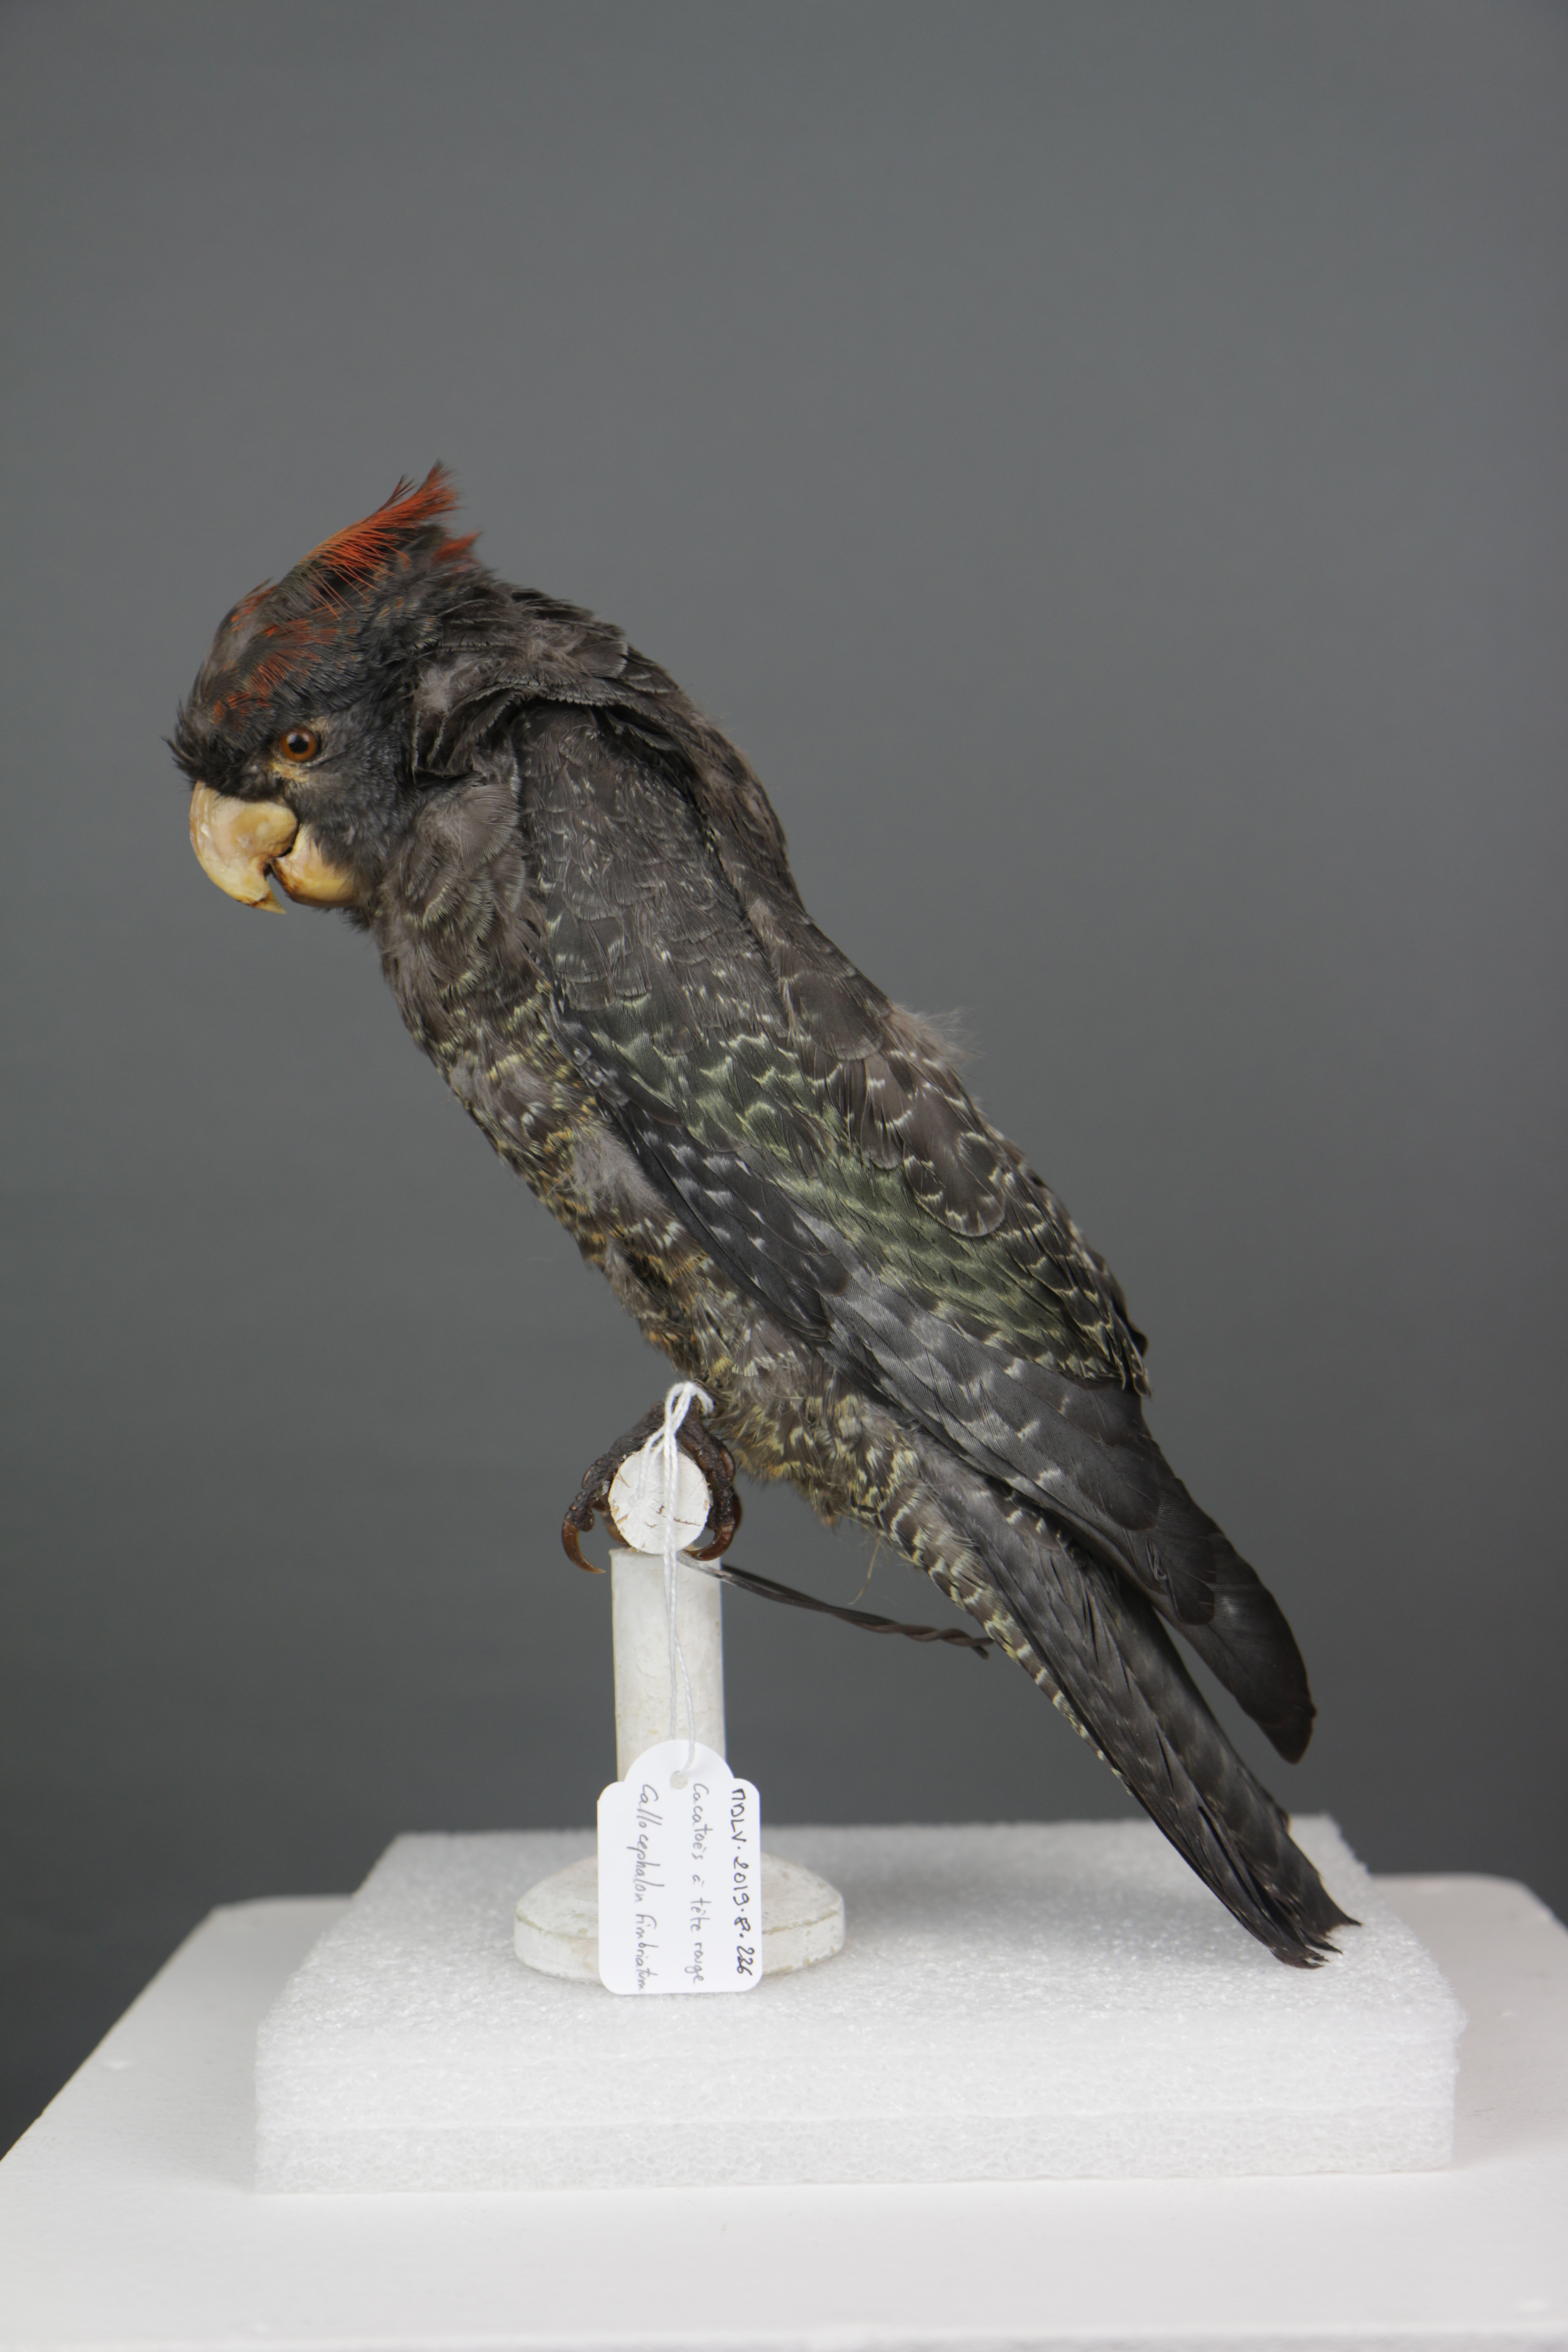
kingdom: Animalia
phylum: Chordata
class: Aves
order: Psittaciformes
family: Psittacidae
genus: Callocephalon
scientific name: Callocephalon fimbriatum
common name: Gang-gang cockatoo
